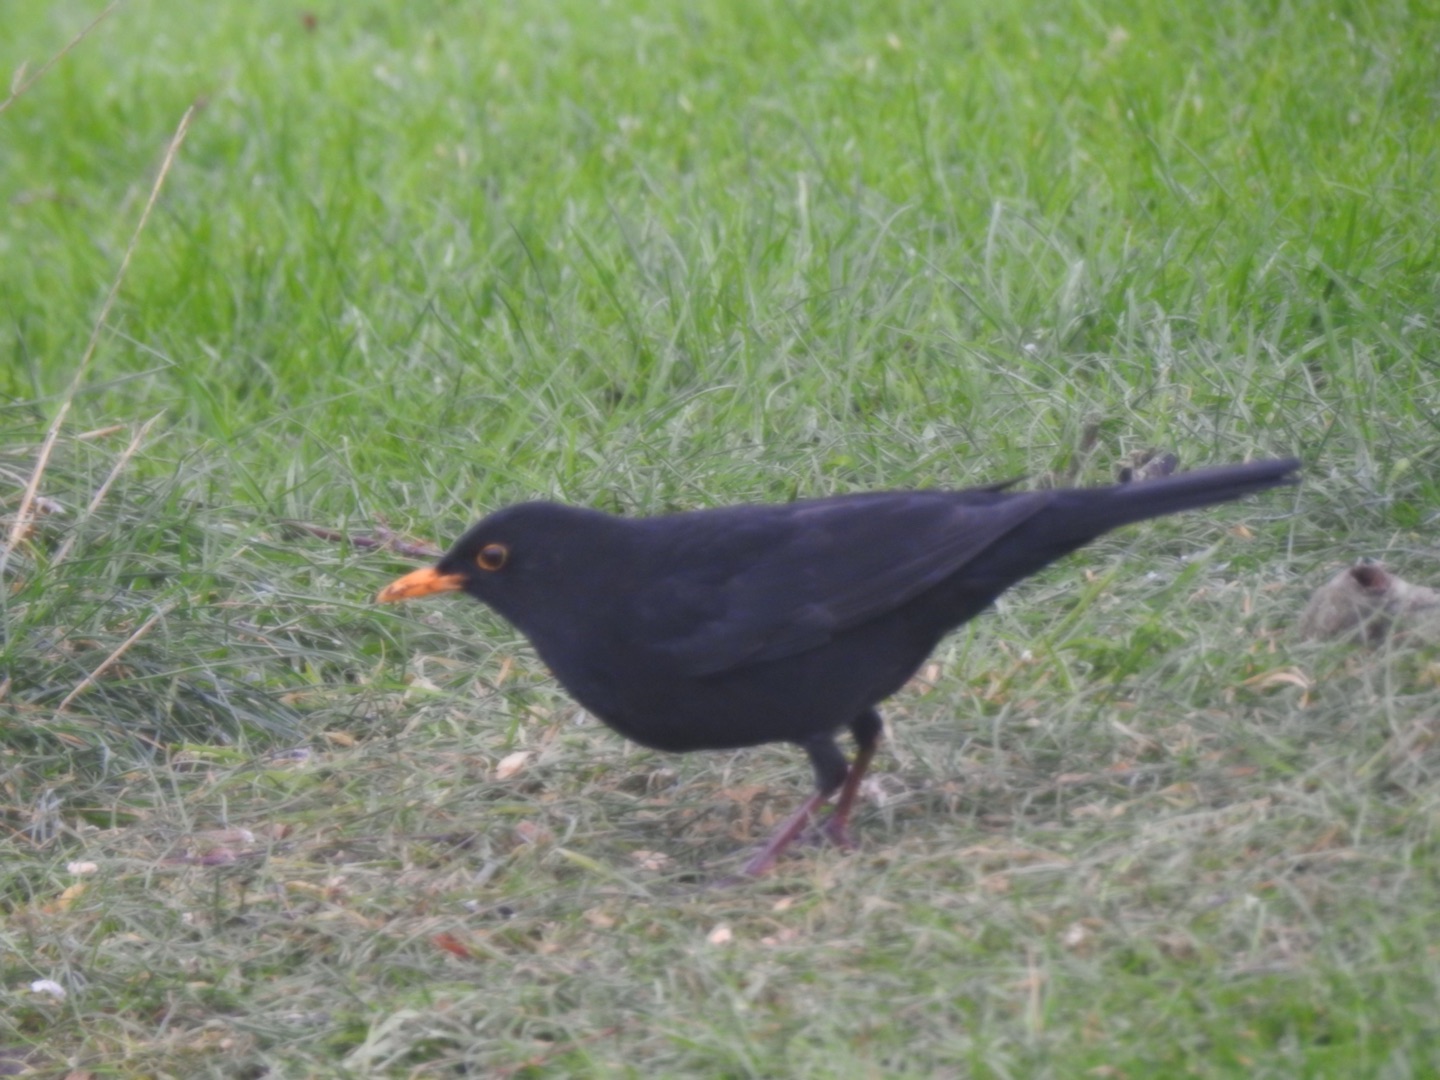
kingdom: Animalia
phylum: Chordata
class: Aves
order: Passeriformes
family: Turdidae
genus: Turdus
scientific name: Turdus merula
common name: Solsort
